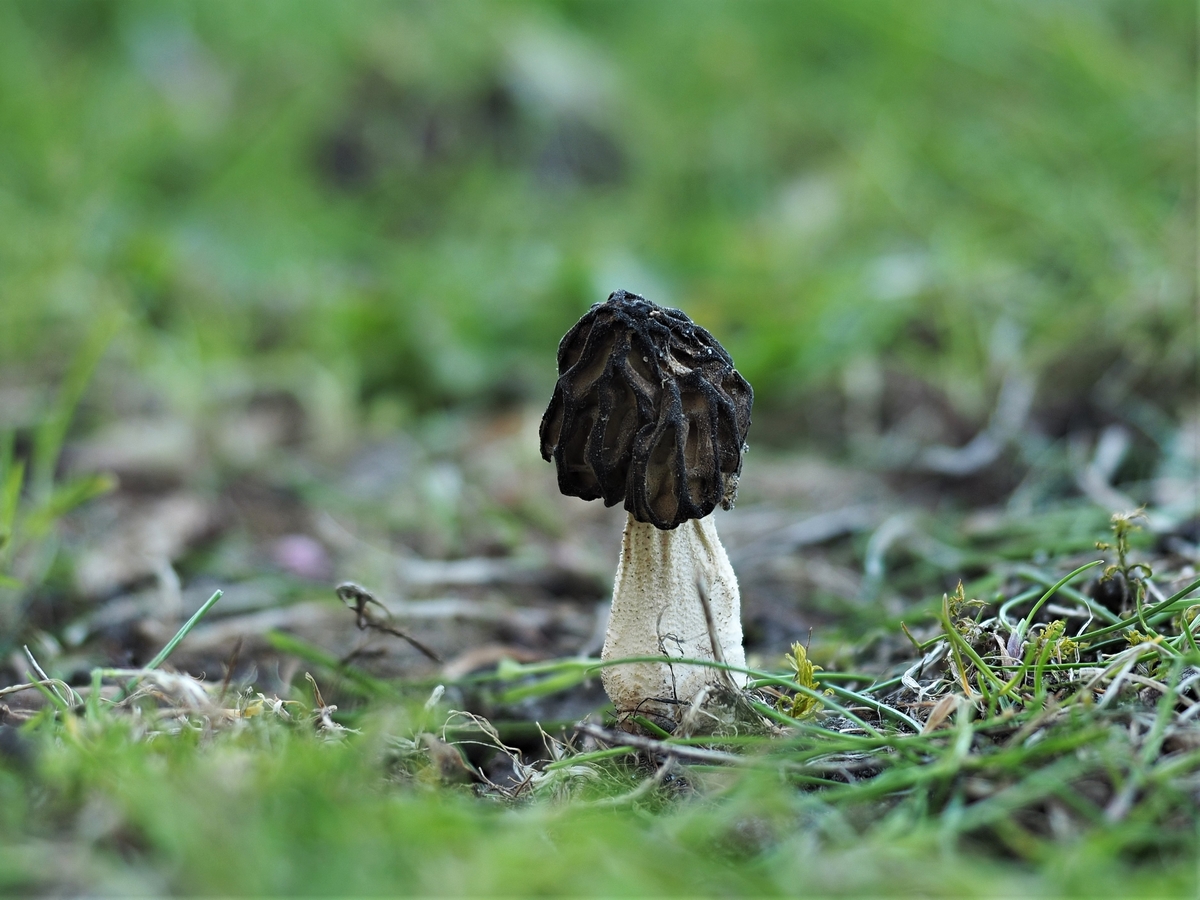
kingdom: Fungi
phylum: Ascomycota
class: Pezizomycetes
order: Pezizales
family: Morchellaceae
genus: Morchella
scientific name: Morchella semilibera
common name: hætte-morkel
